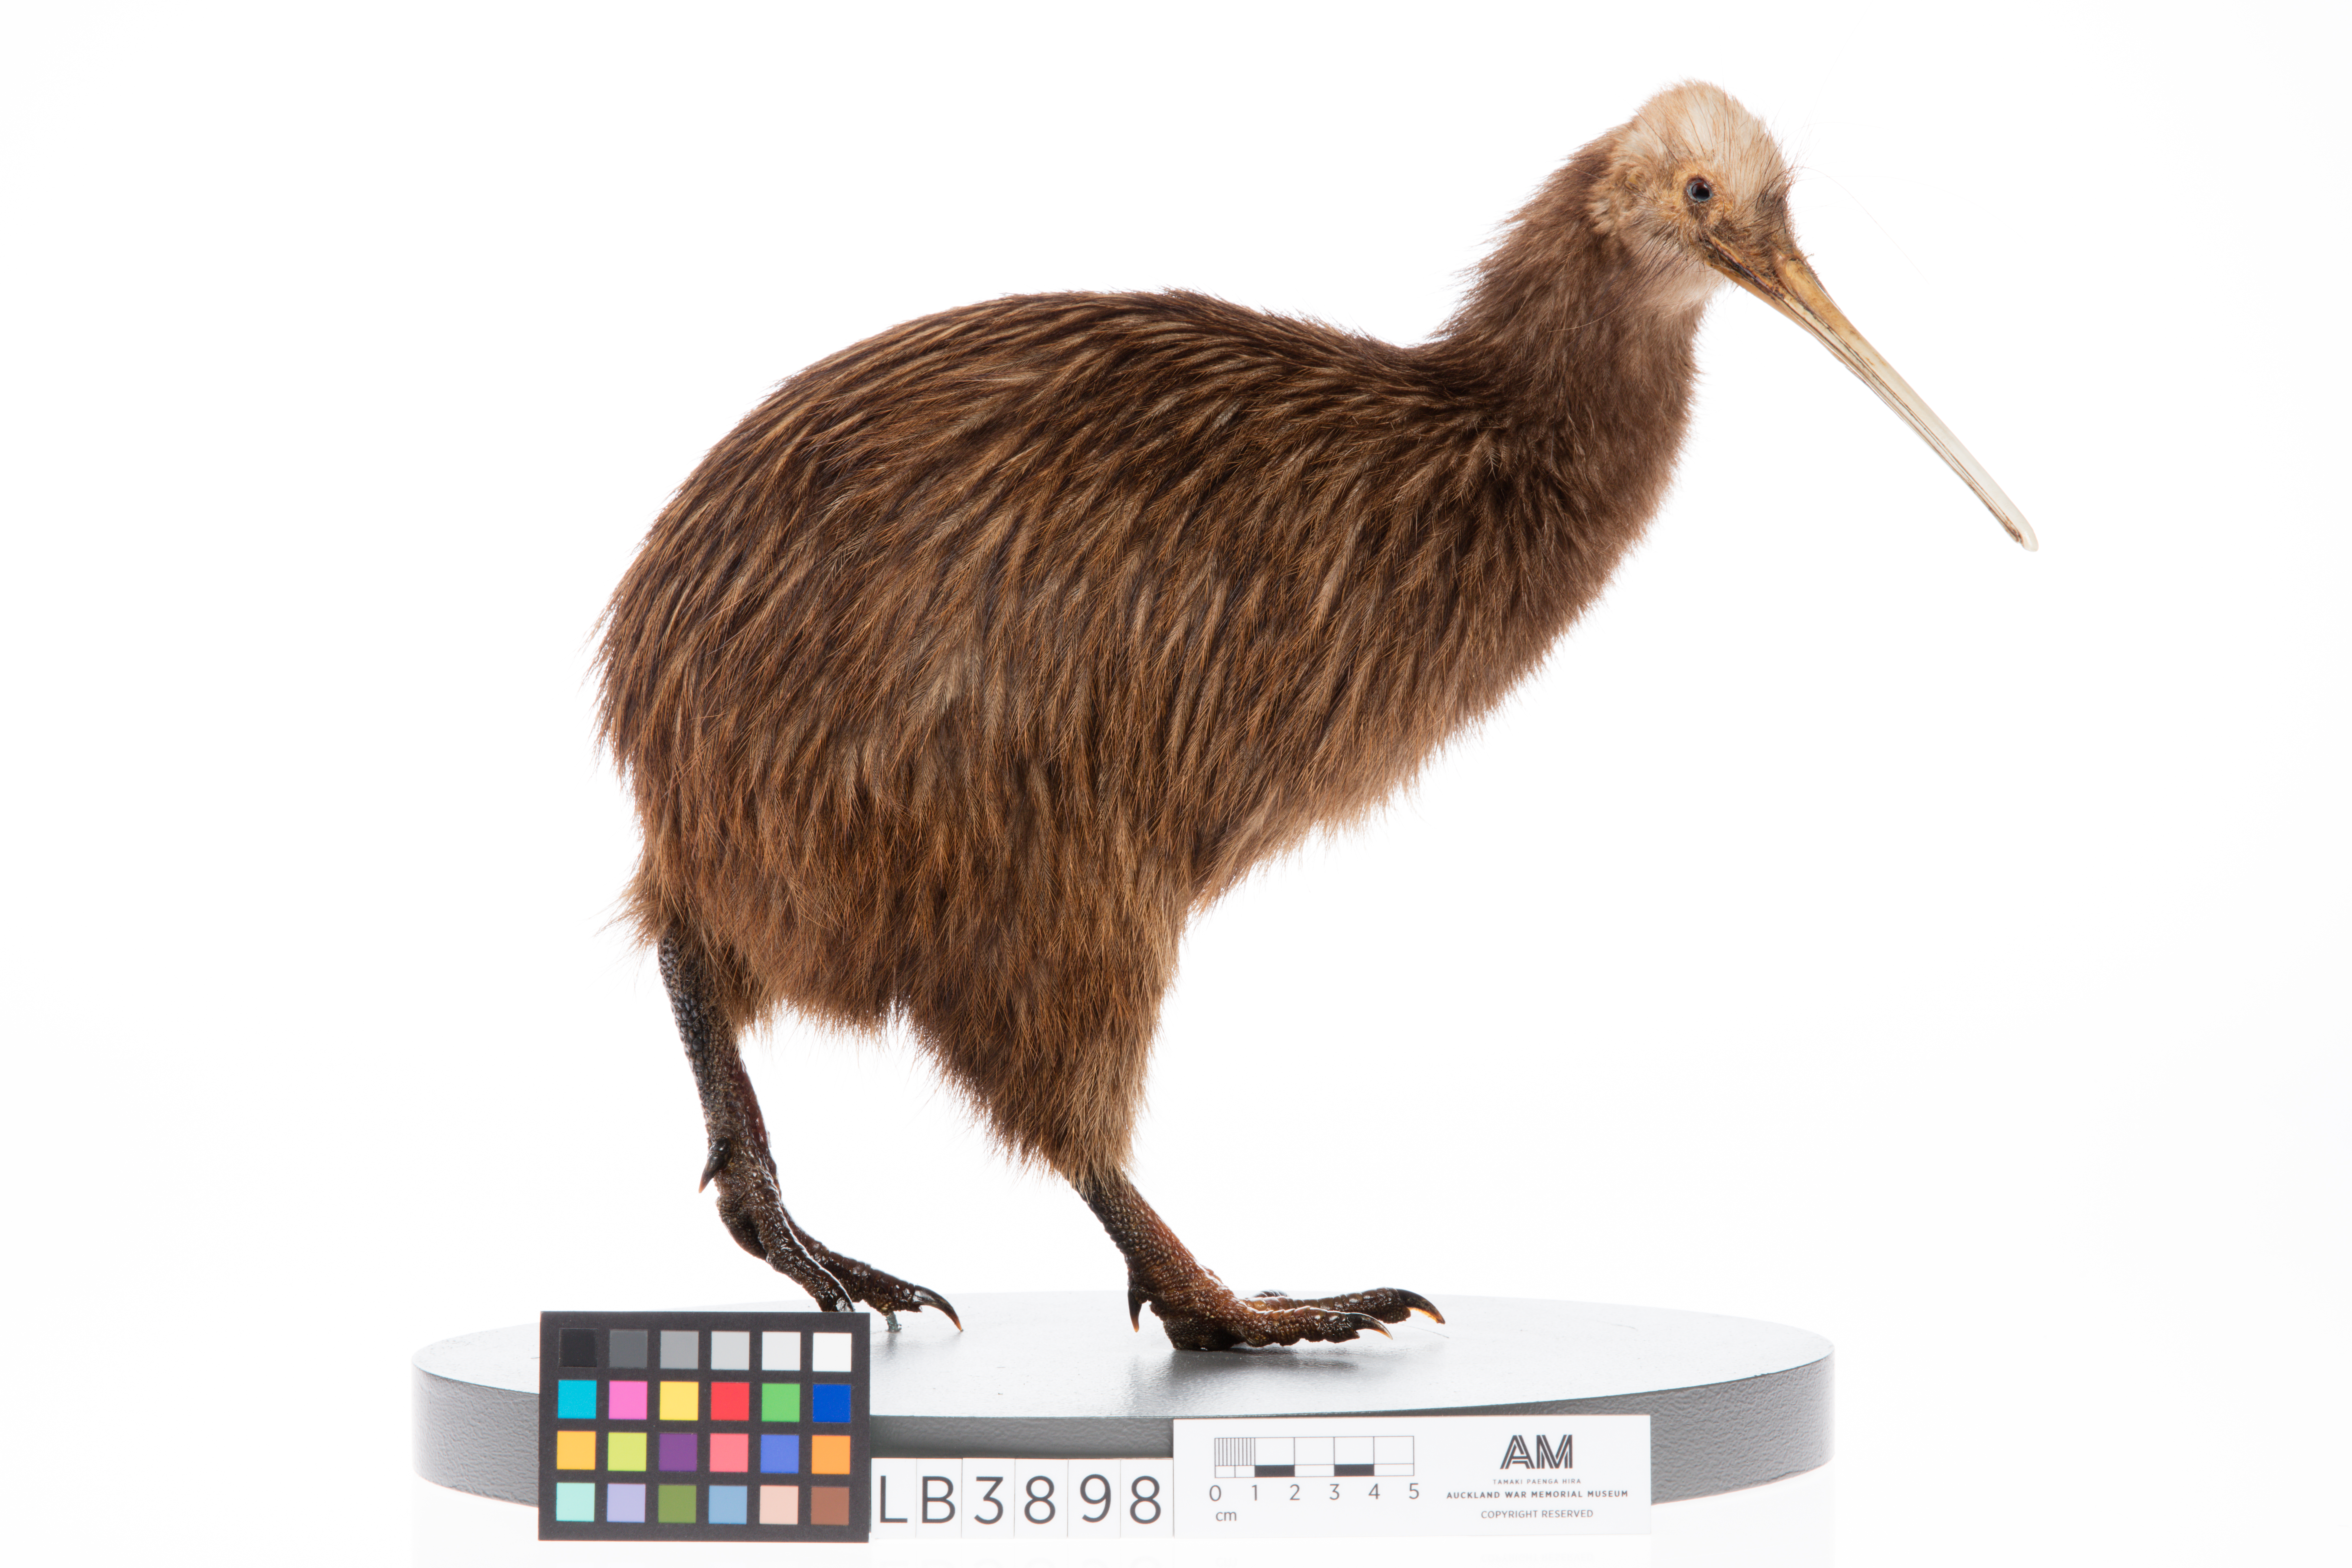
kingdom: Animalia
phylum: Chordata
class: Aves
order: Apterygiformes
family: Apterygidae
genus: Apteryx
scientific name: Apteryx mantelli
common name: North island brown kiwi
